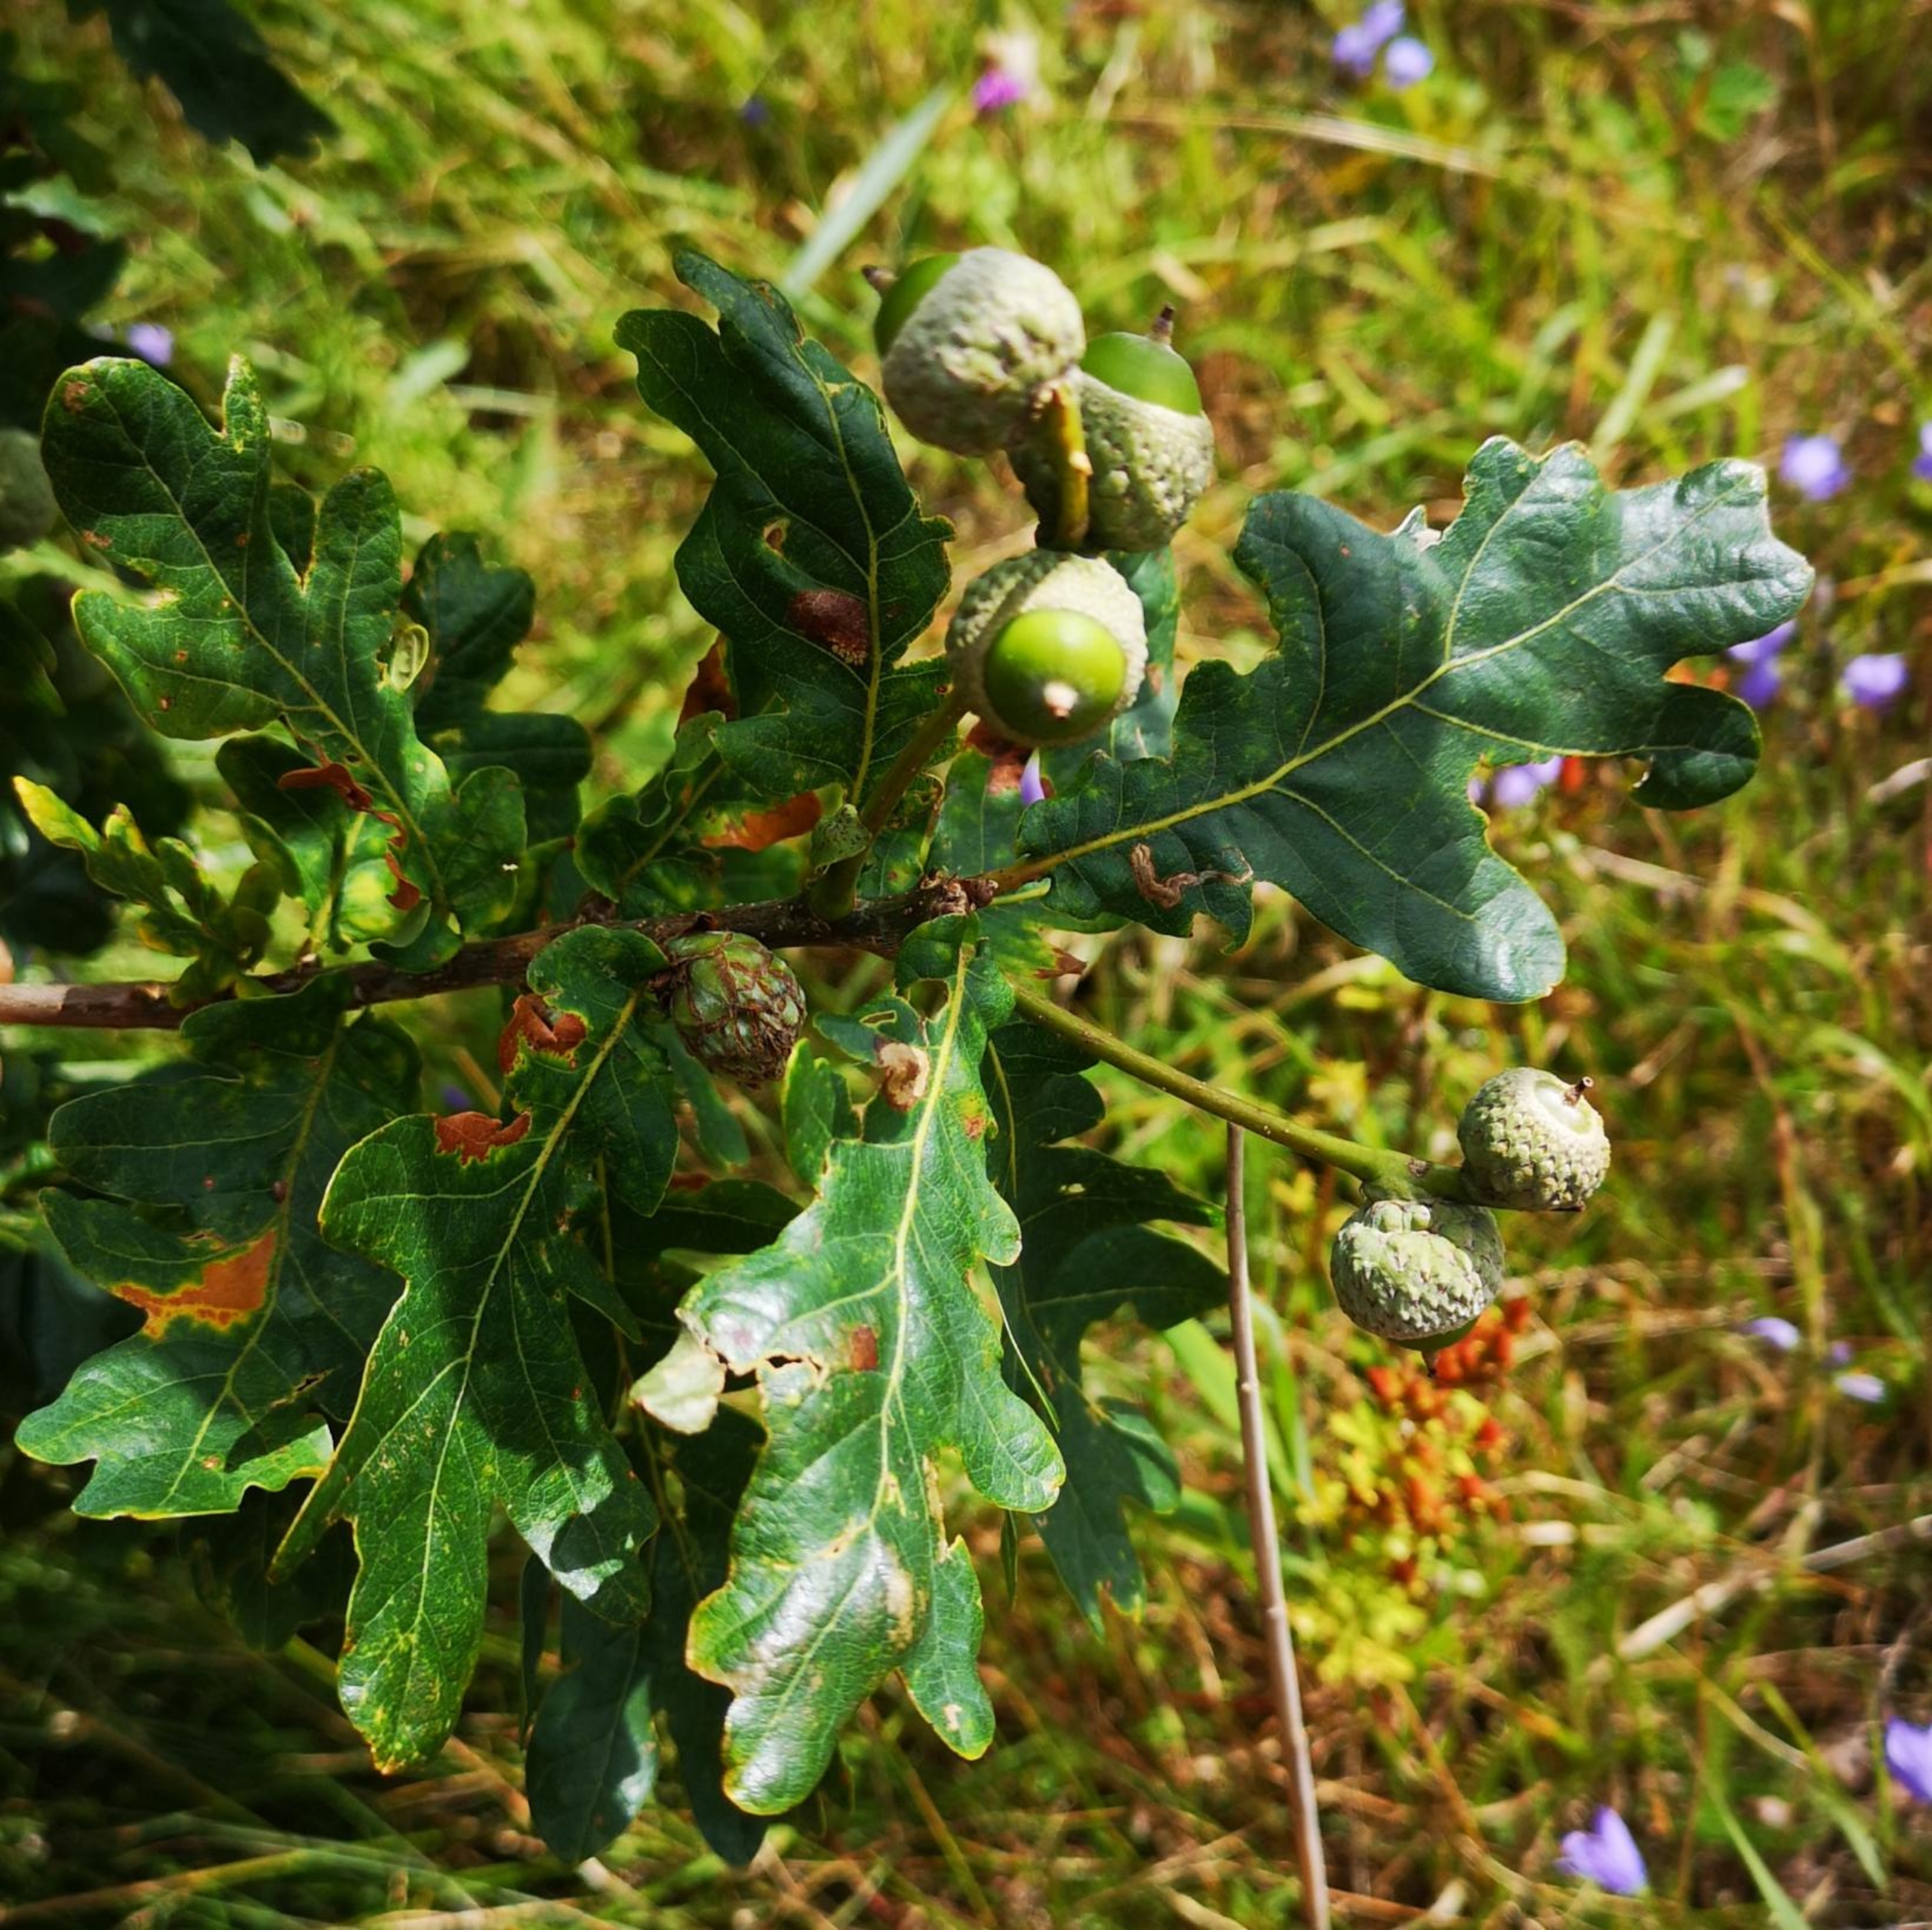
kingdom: Plantae
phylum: Tracheophyta
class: Magnoliopsida
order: Fagales
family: Fagaceae
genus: Quercus
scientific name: Quercus robur
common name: Stilk-eg/almindelig eg
